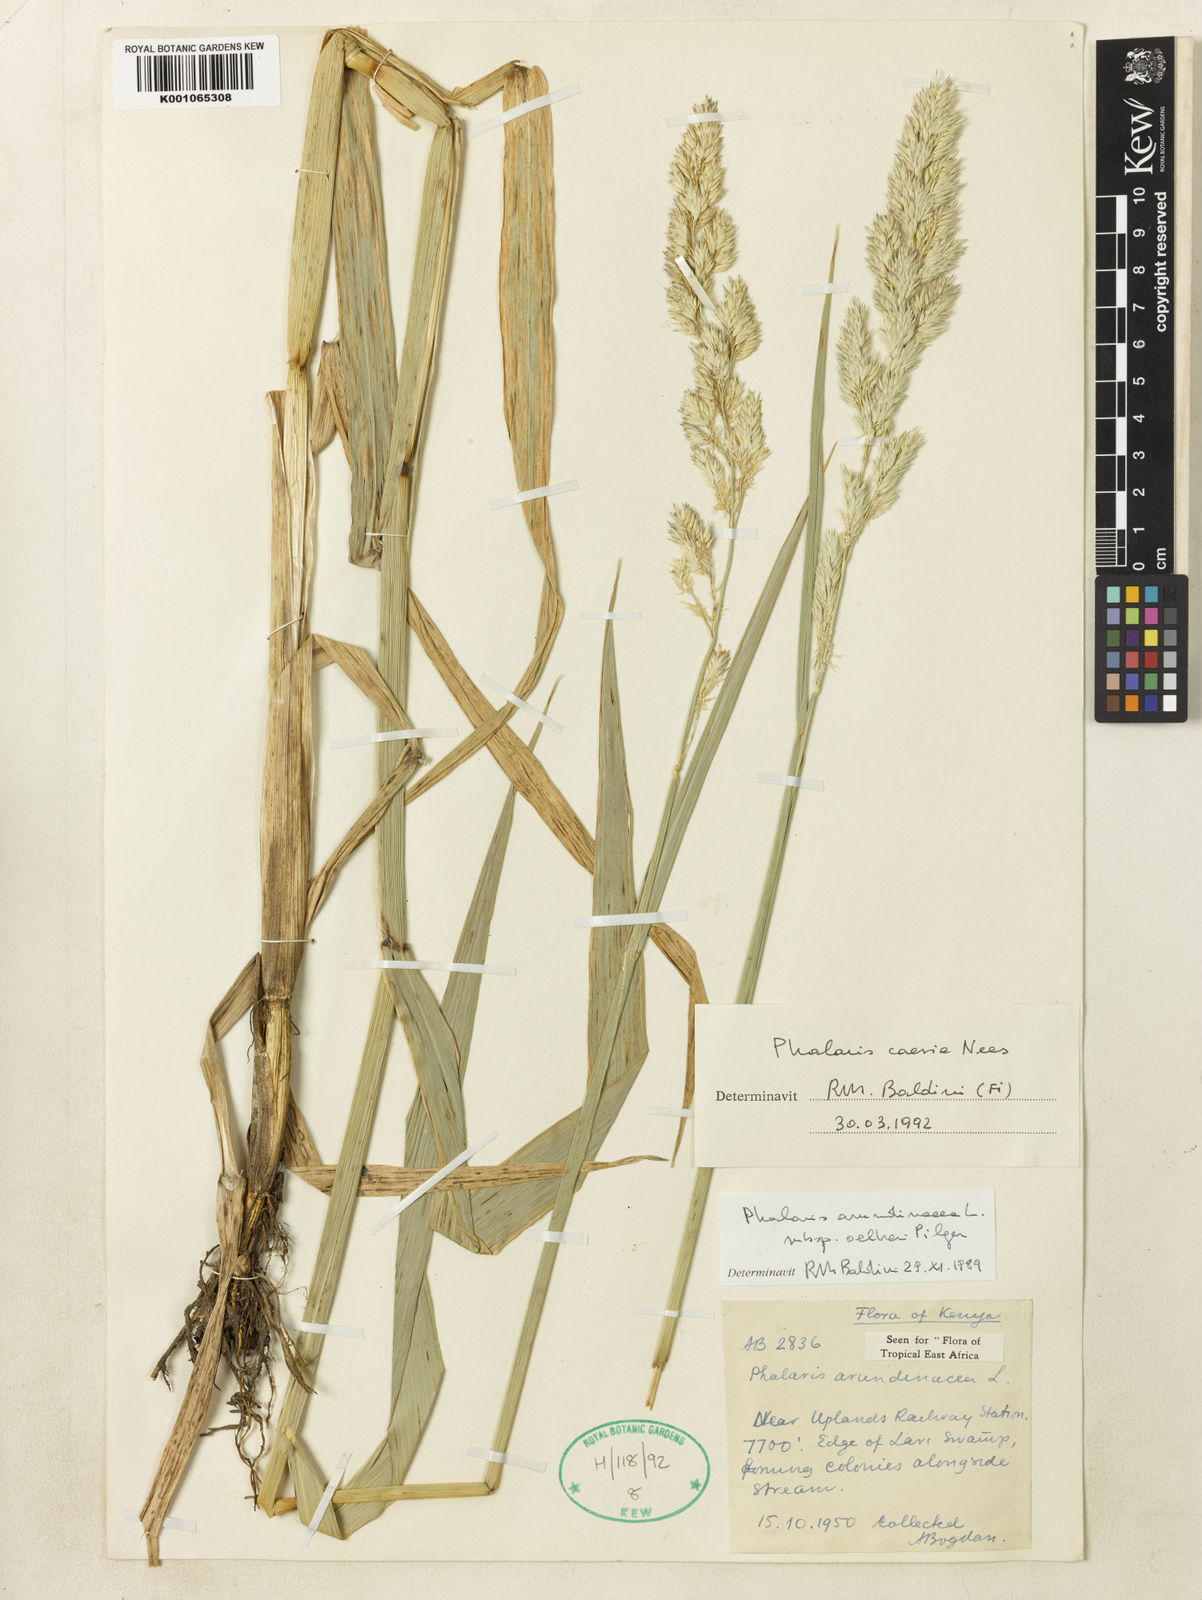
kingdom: Plantae
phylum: Tracheophyta
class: Liliopsida
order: Poales
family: Poaceae
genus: Phalaris
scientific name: Phalaris arundinacea
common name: Reed canary-grass
